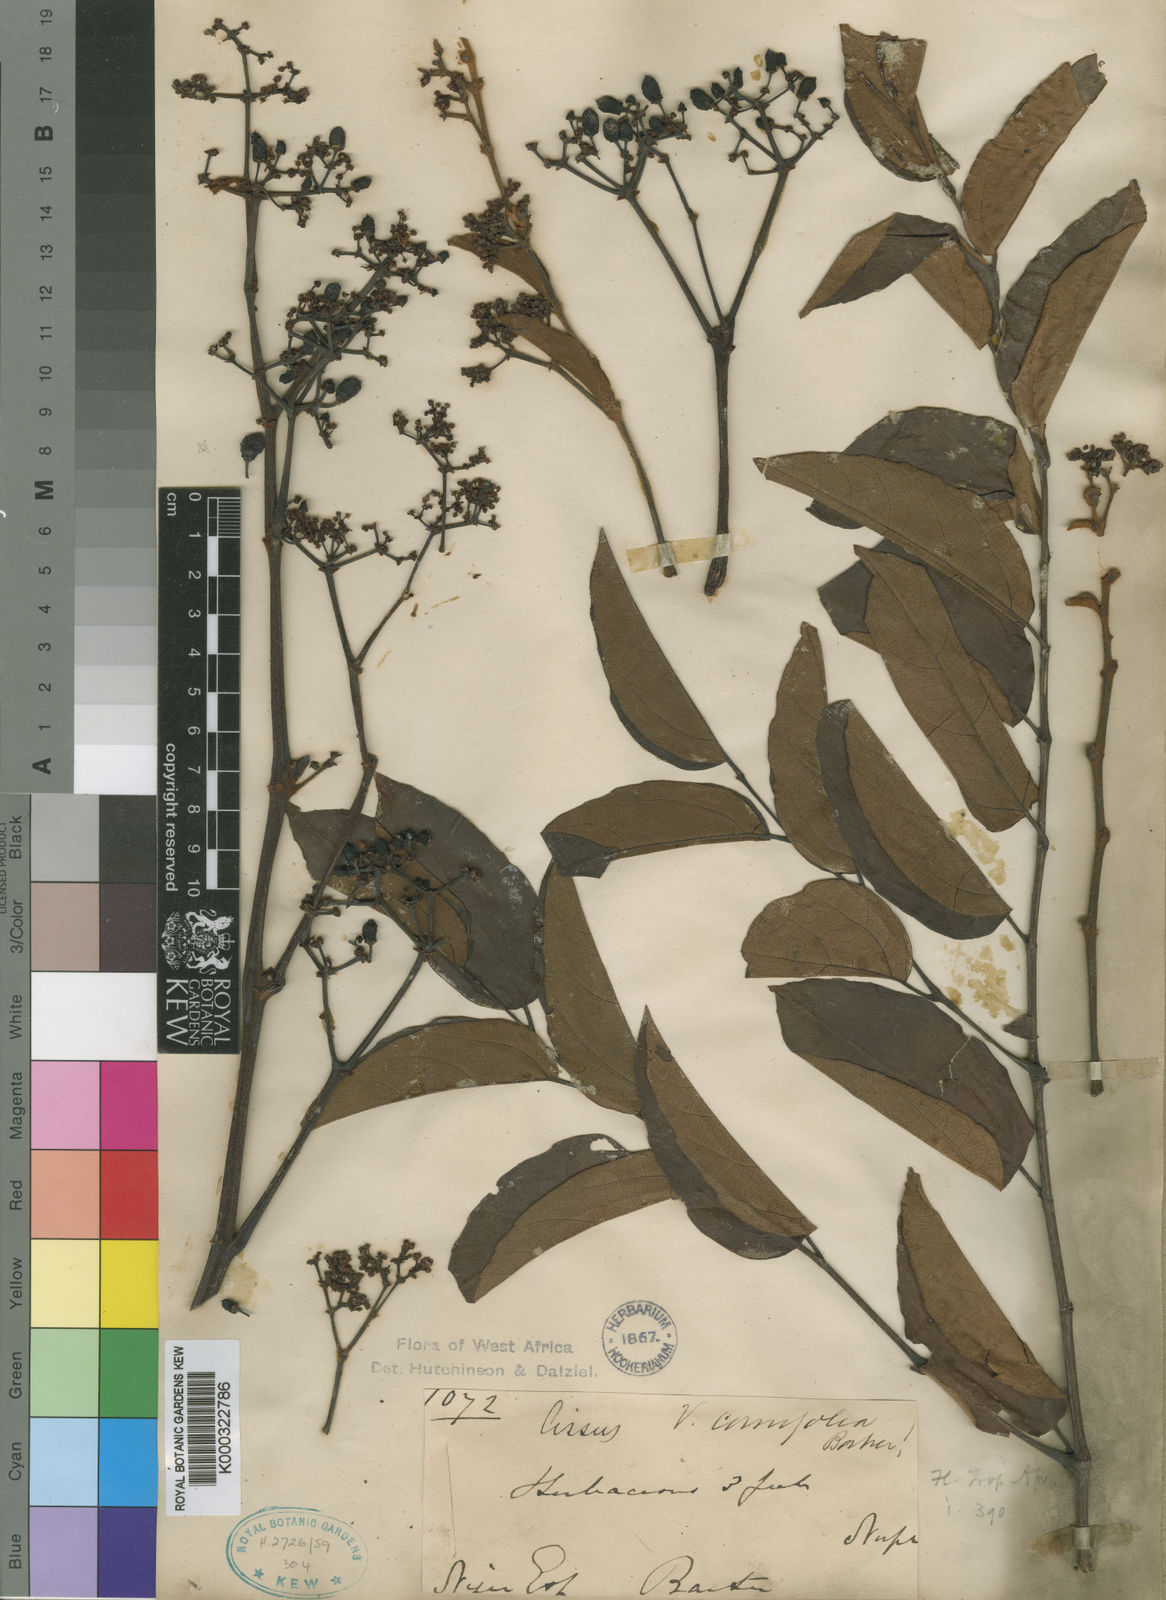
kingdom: Plantae
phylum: Tracheophyta
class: Magnoliopsida
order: Vitales
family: Vitaceae
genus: Cissus
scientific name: Cissus cornifolia
